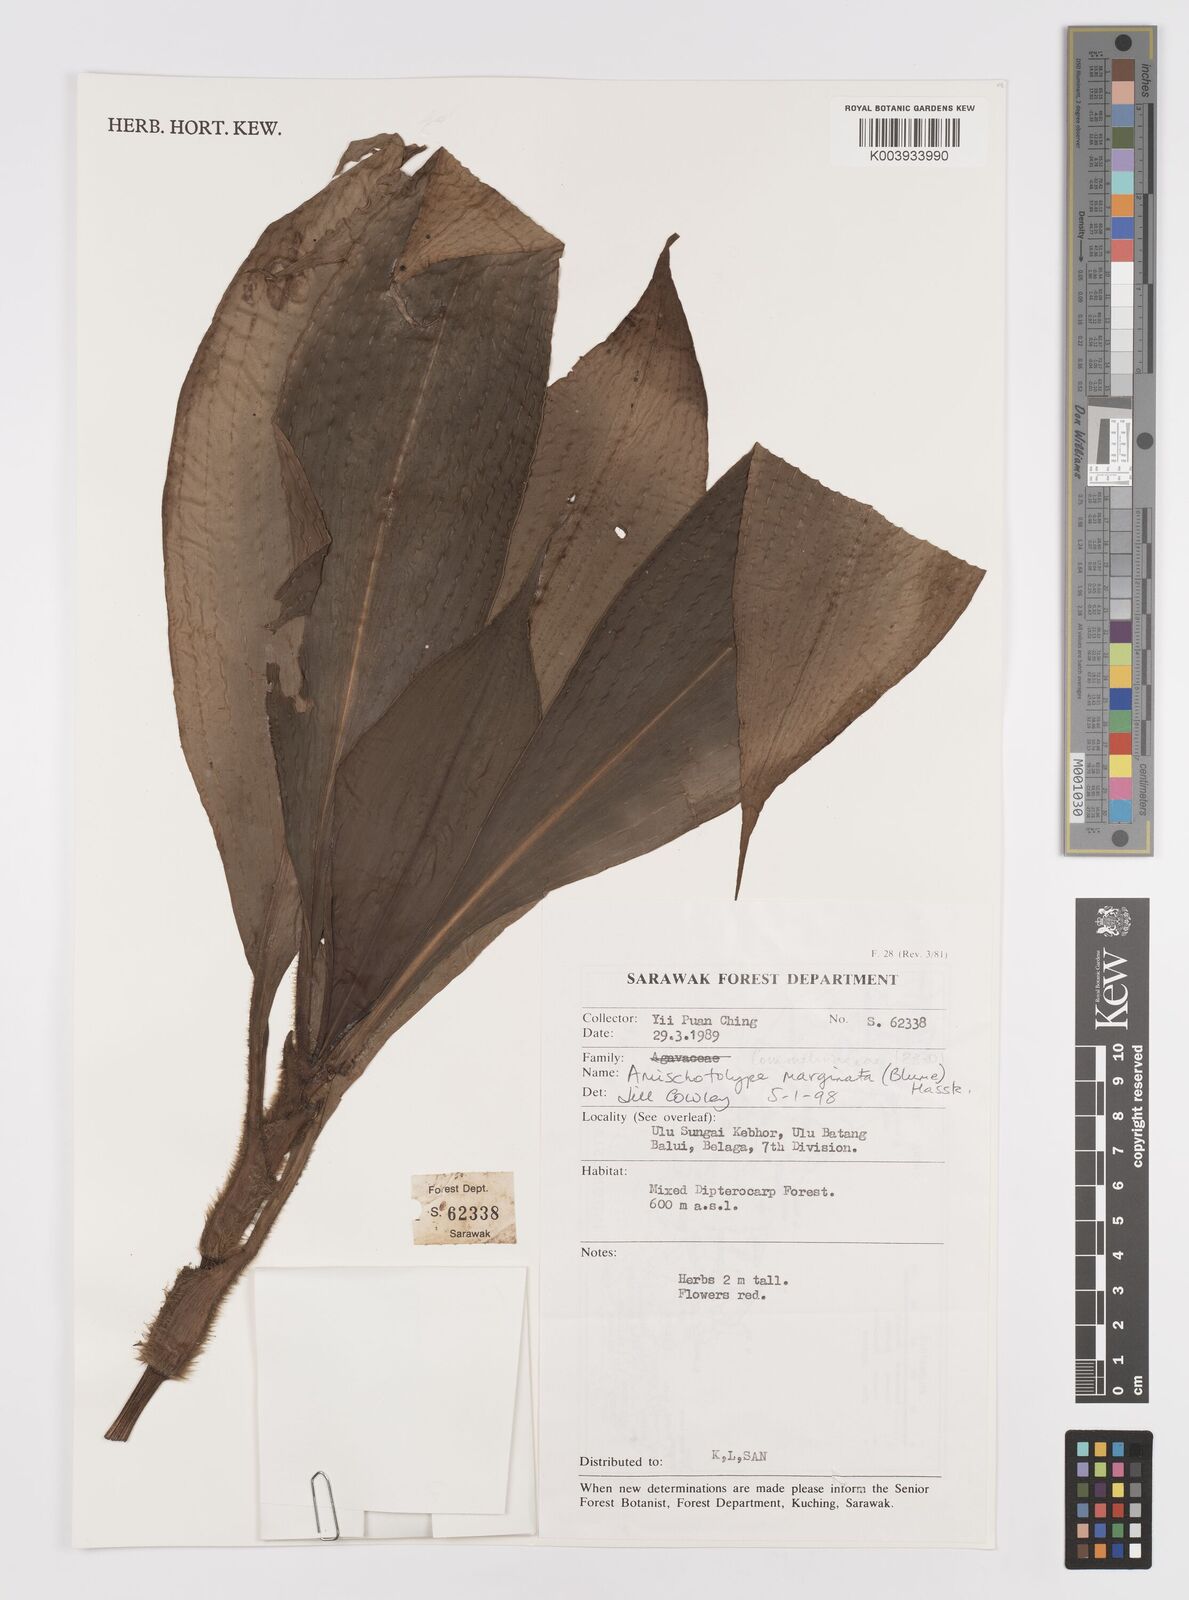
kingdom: Plantae
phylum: Tracheophyta
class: Liliopsida
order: Commelinales
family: Commelinaceae
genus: Amischotolype
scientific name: Amischotolype marginata
